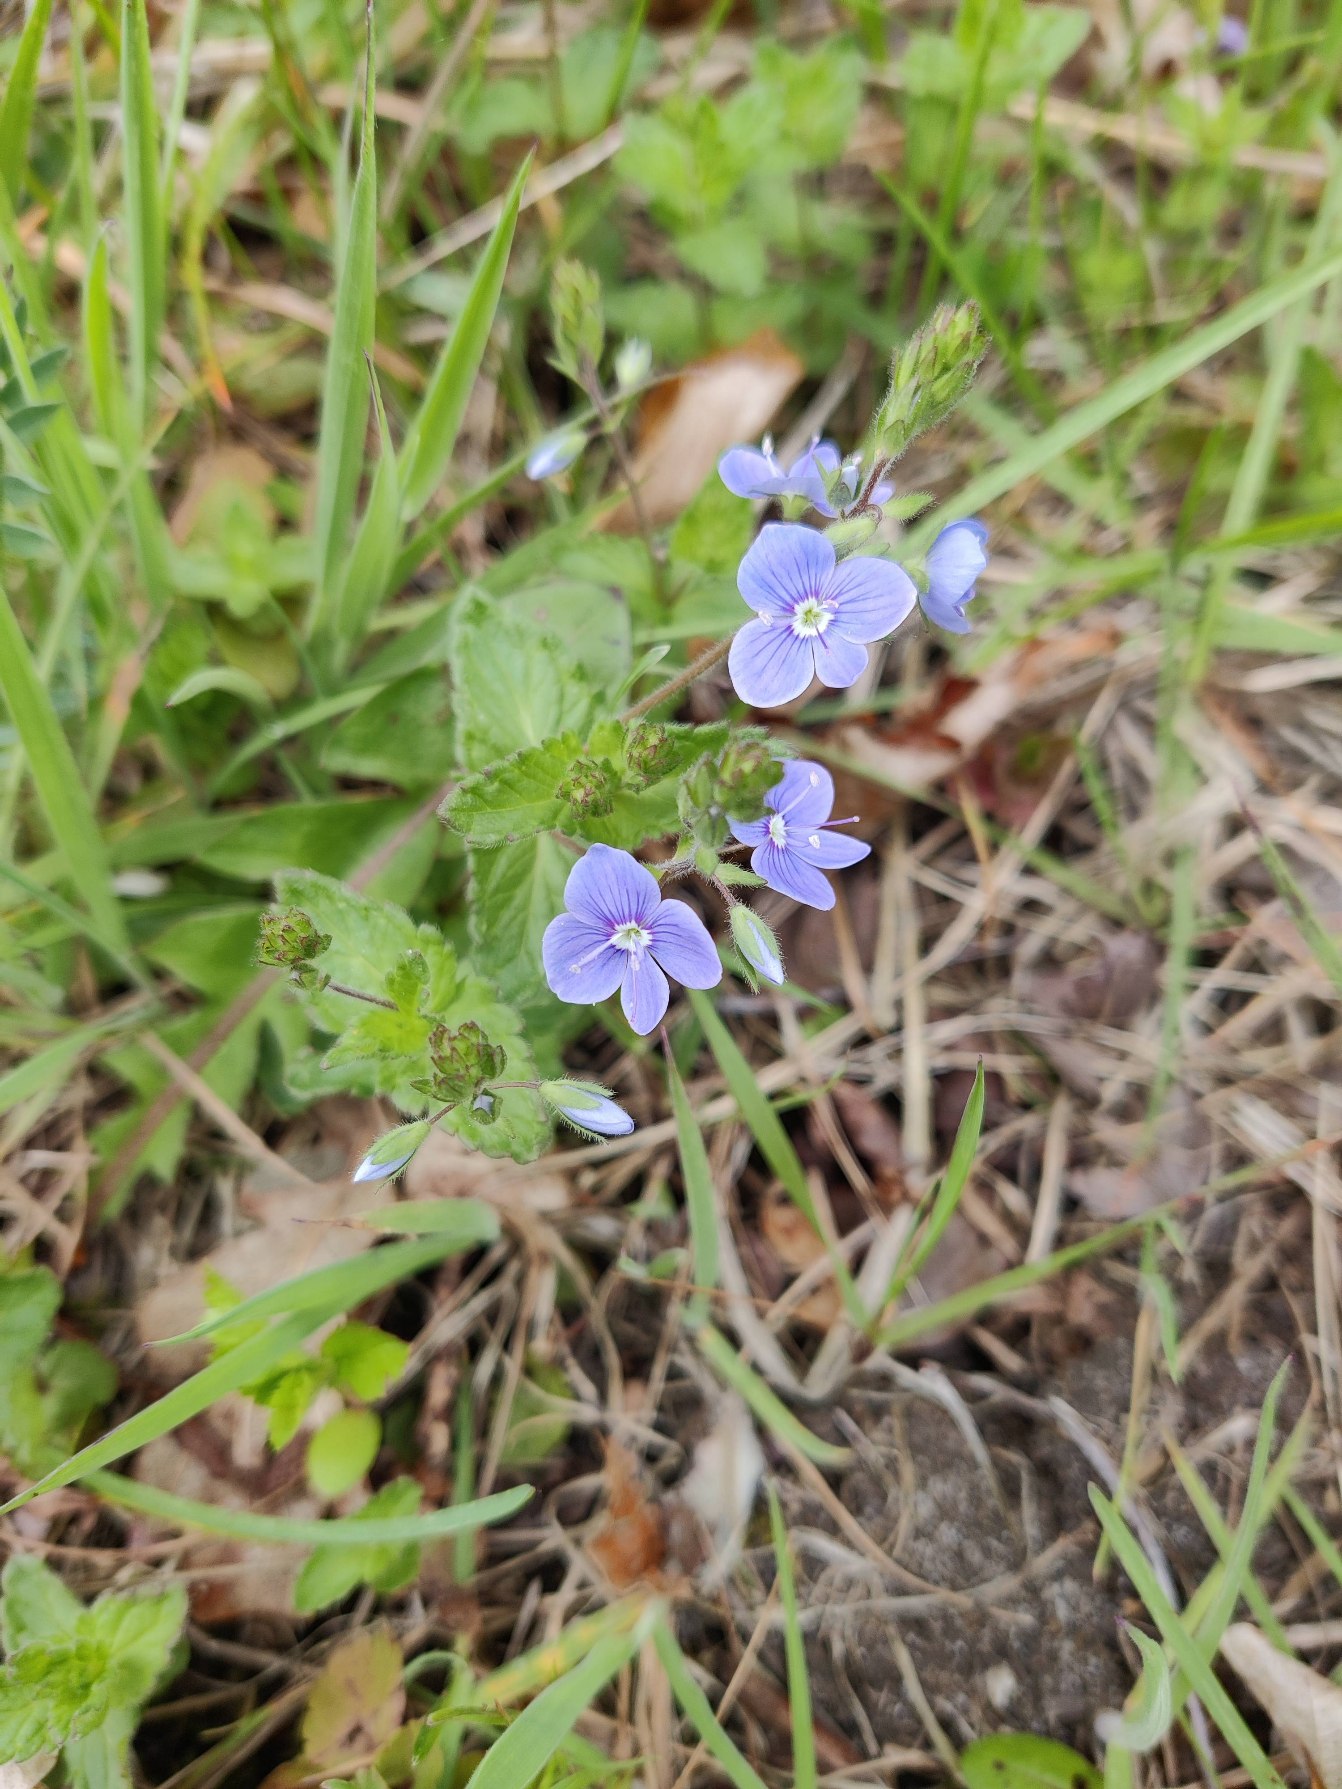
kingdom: Plantae
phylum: Tracheophyta
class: Magnoliopsida
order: Lamiales
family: Plantaginaceae
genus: Veronica
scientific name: Veronica chamaedrys
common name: Tveskægget ærenpris
